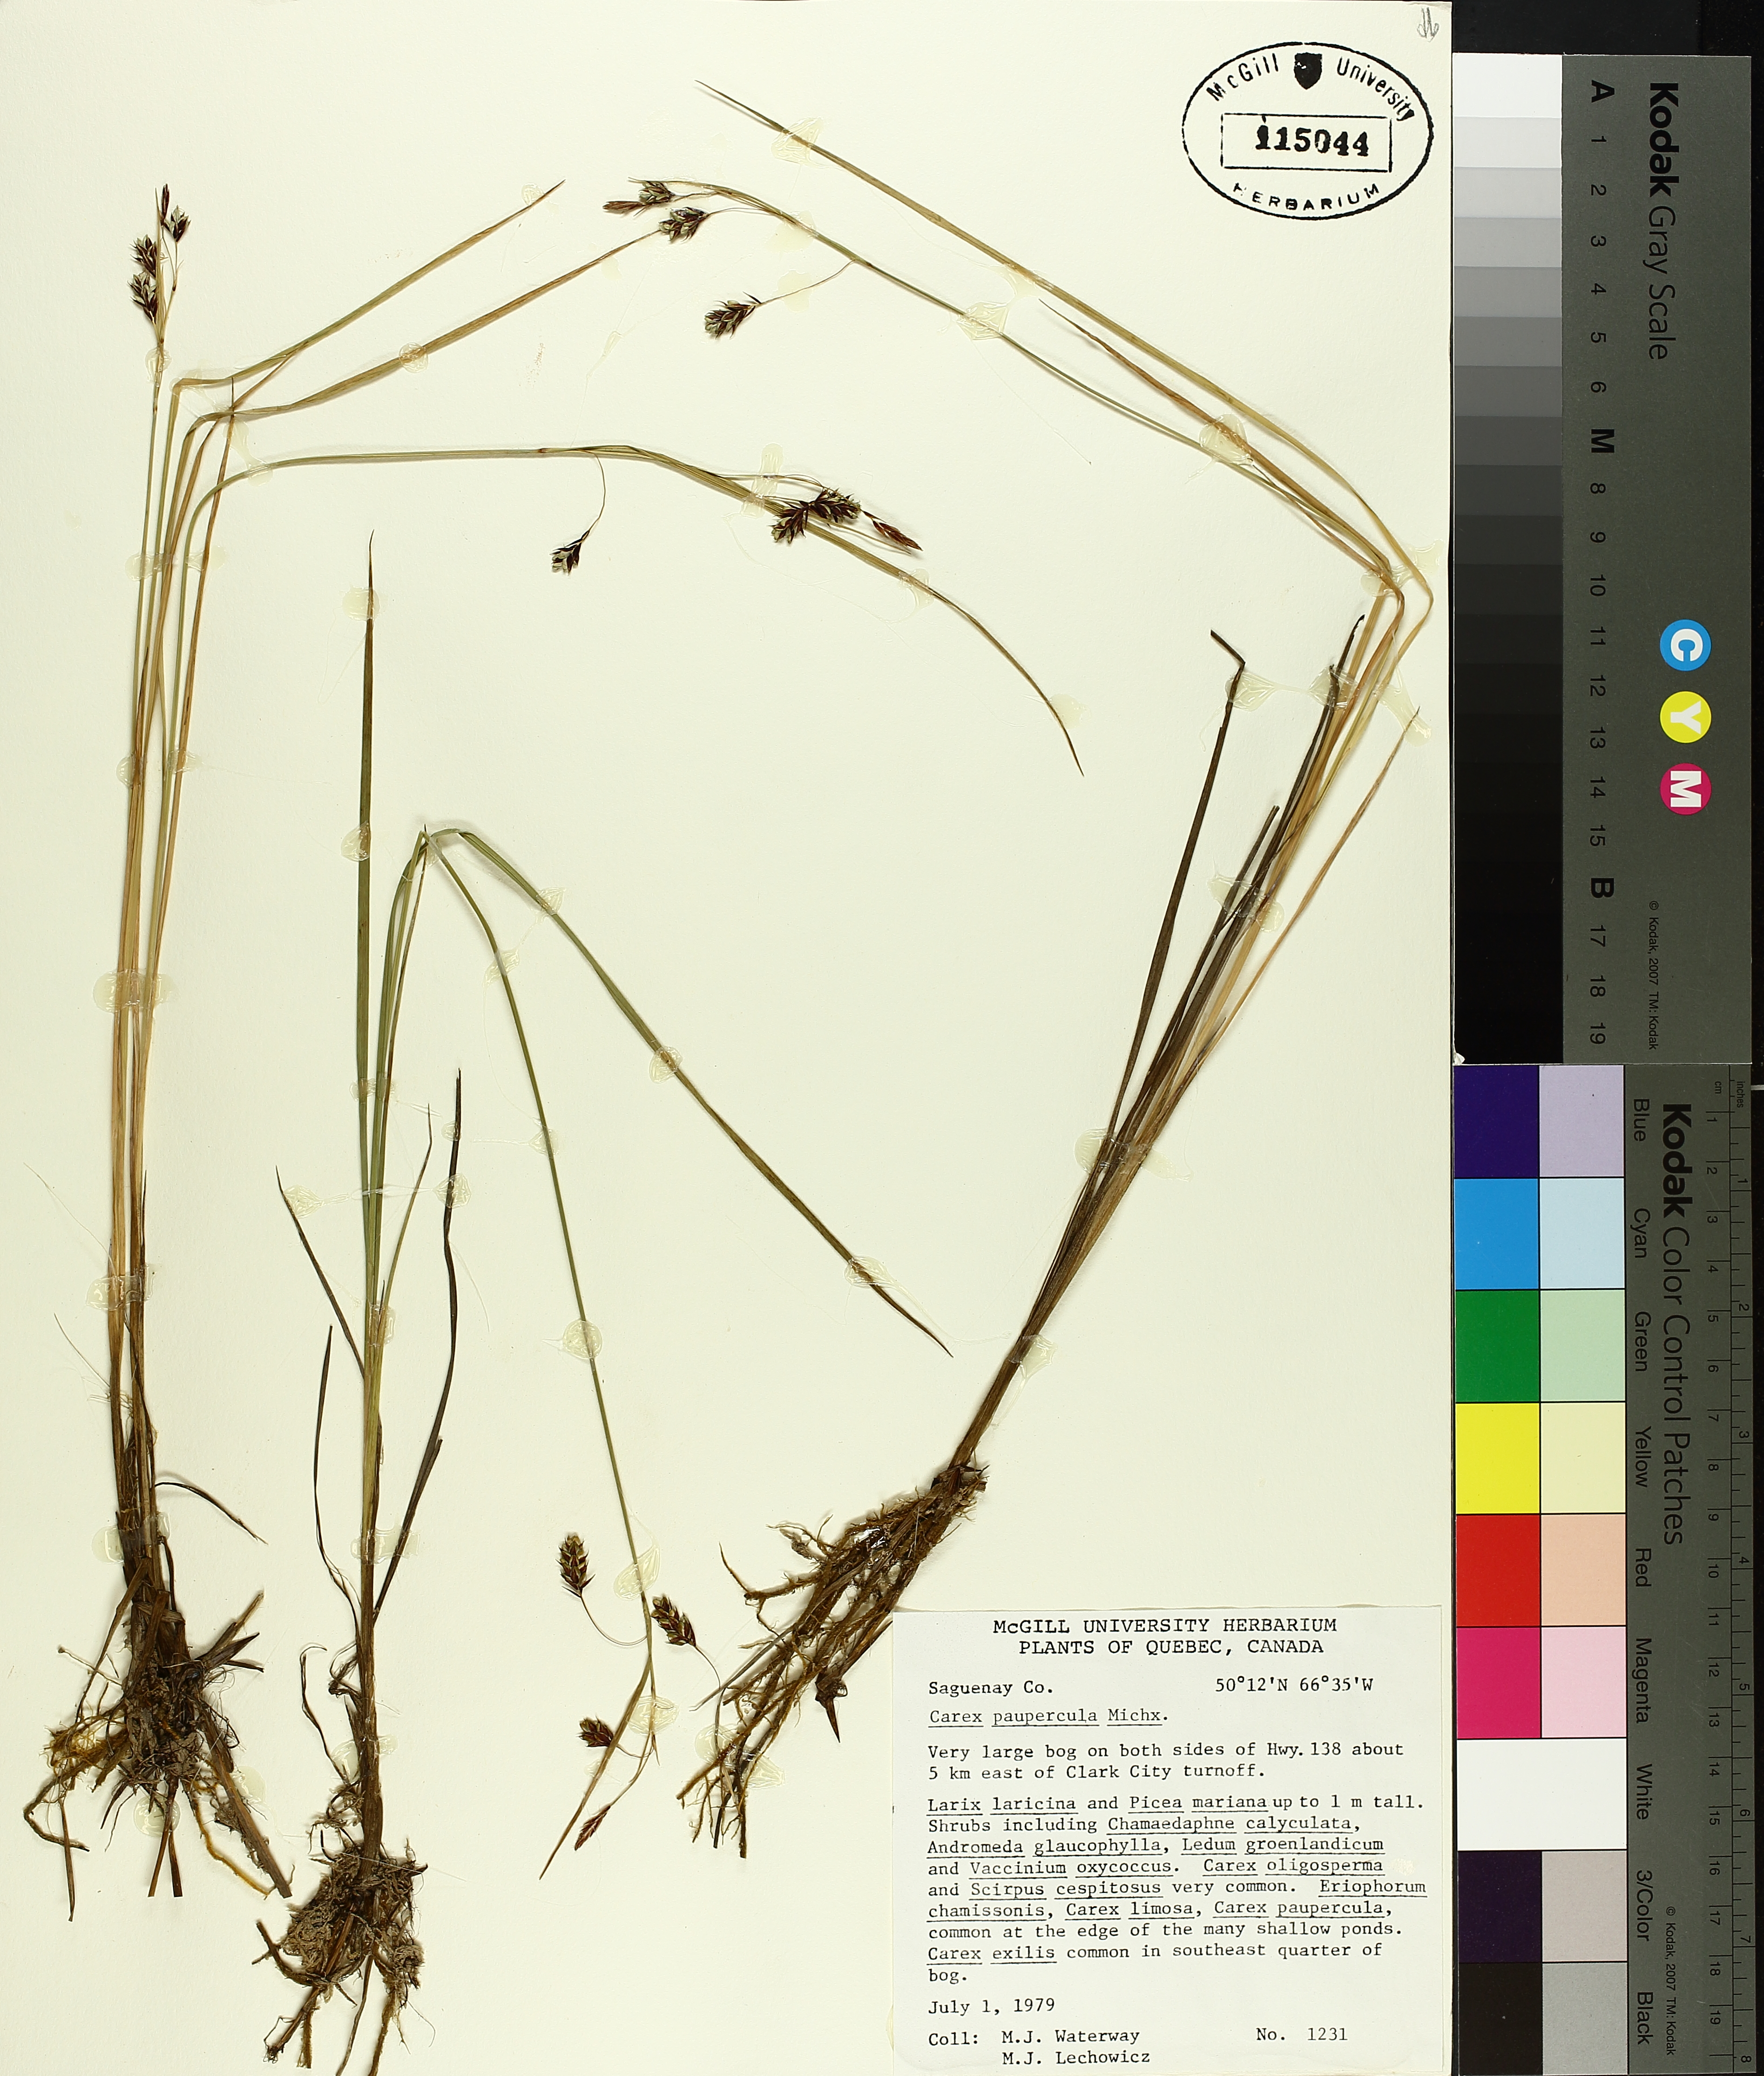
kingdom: Plantae
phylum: Tracheophyta
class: Liliopsida
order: Poales
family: Cyperaceae
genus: Carex
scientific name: Carex magellanica
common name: Bog sedge
